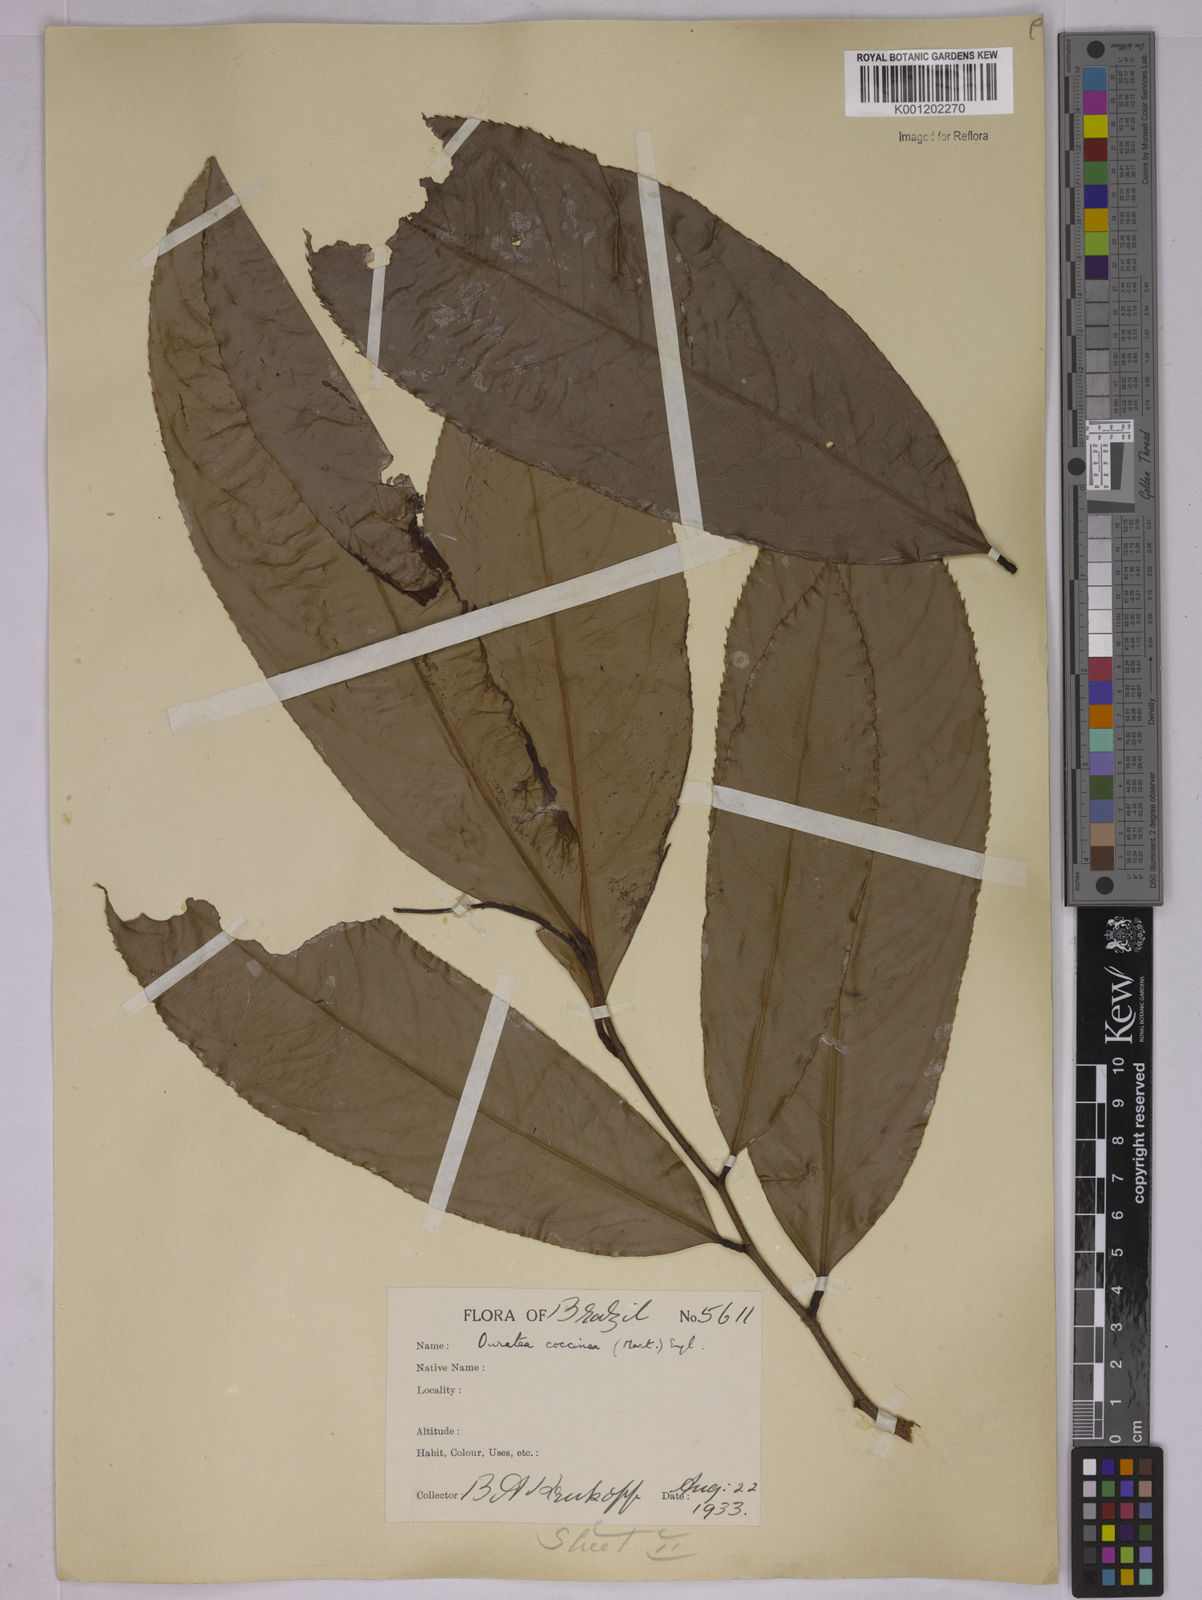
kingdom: Plantae
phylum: Tracheophyta
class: Magnoliopsida
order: Malpighiales
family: Ochnaceae
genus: Ouratea
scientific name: Ouratea
